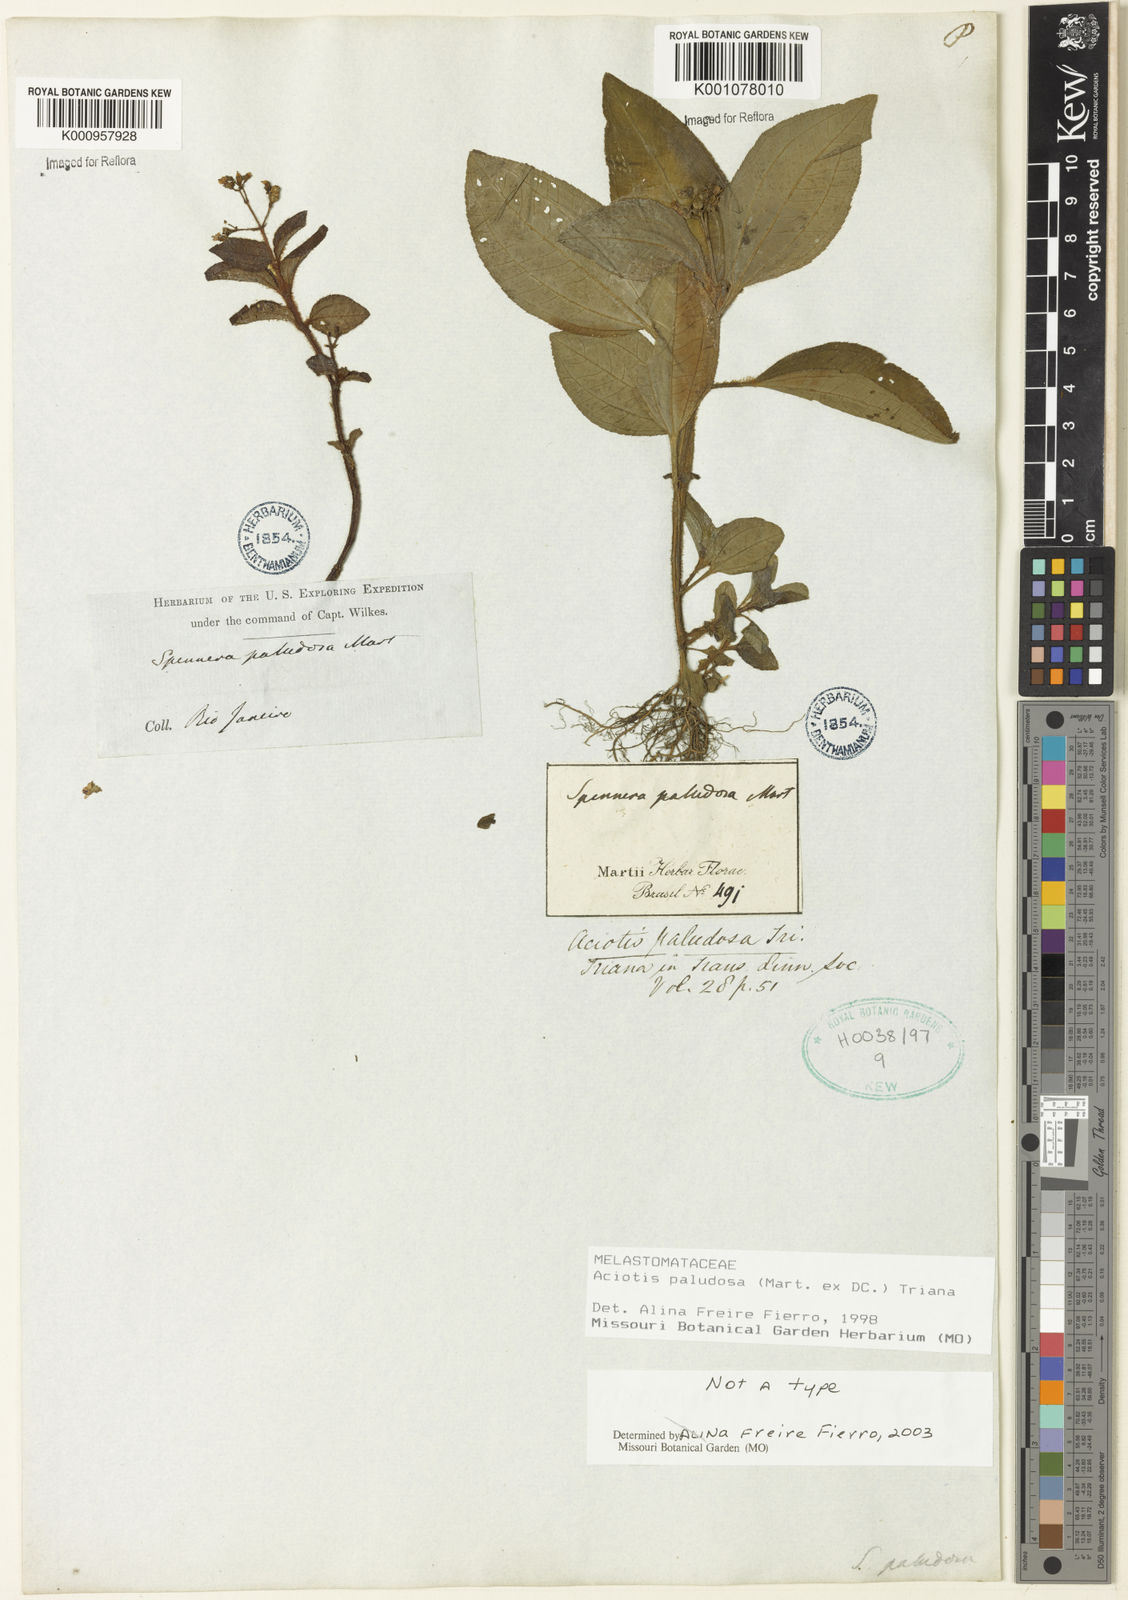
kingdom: Plantae
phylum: Tracheophyta
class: Magnoliopsida
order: Myrtales
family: Melastomataceae
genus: Aciotis
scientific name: Aciotis paludosa
